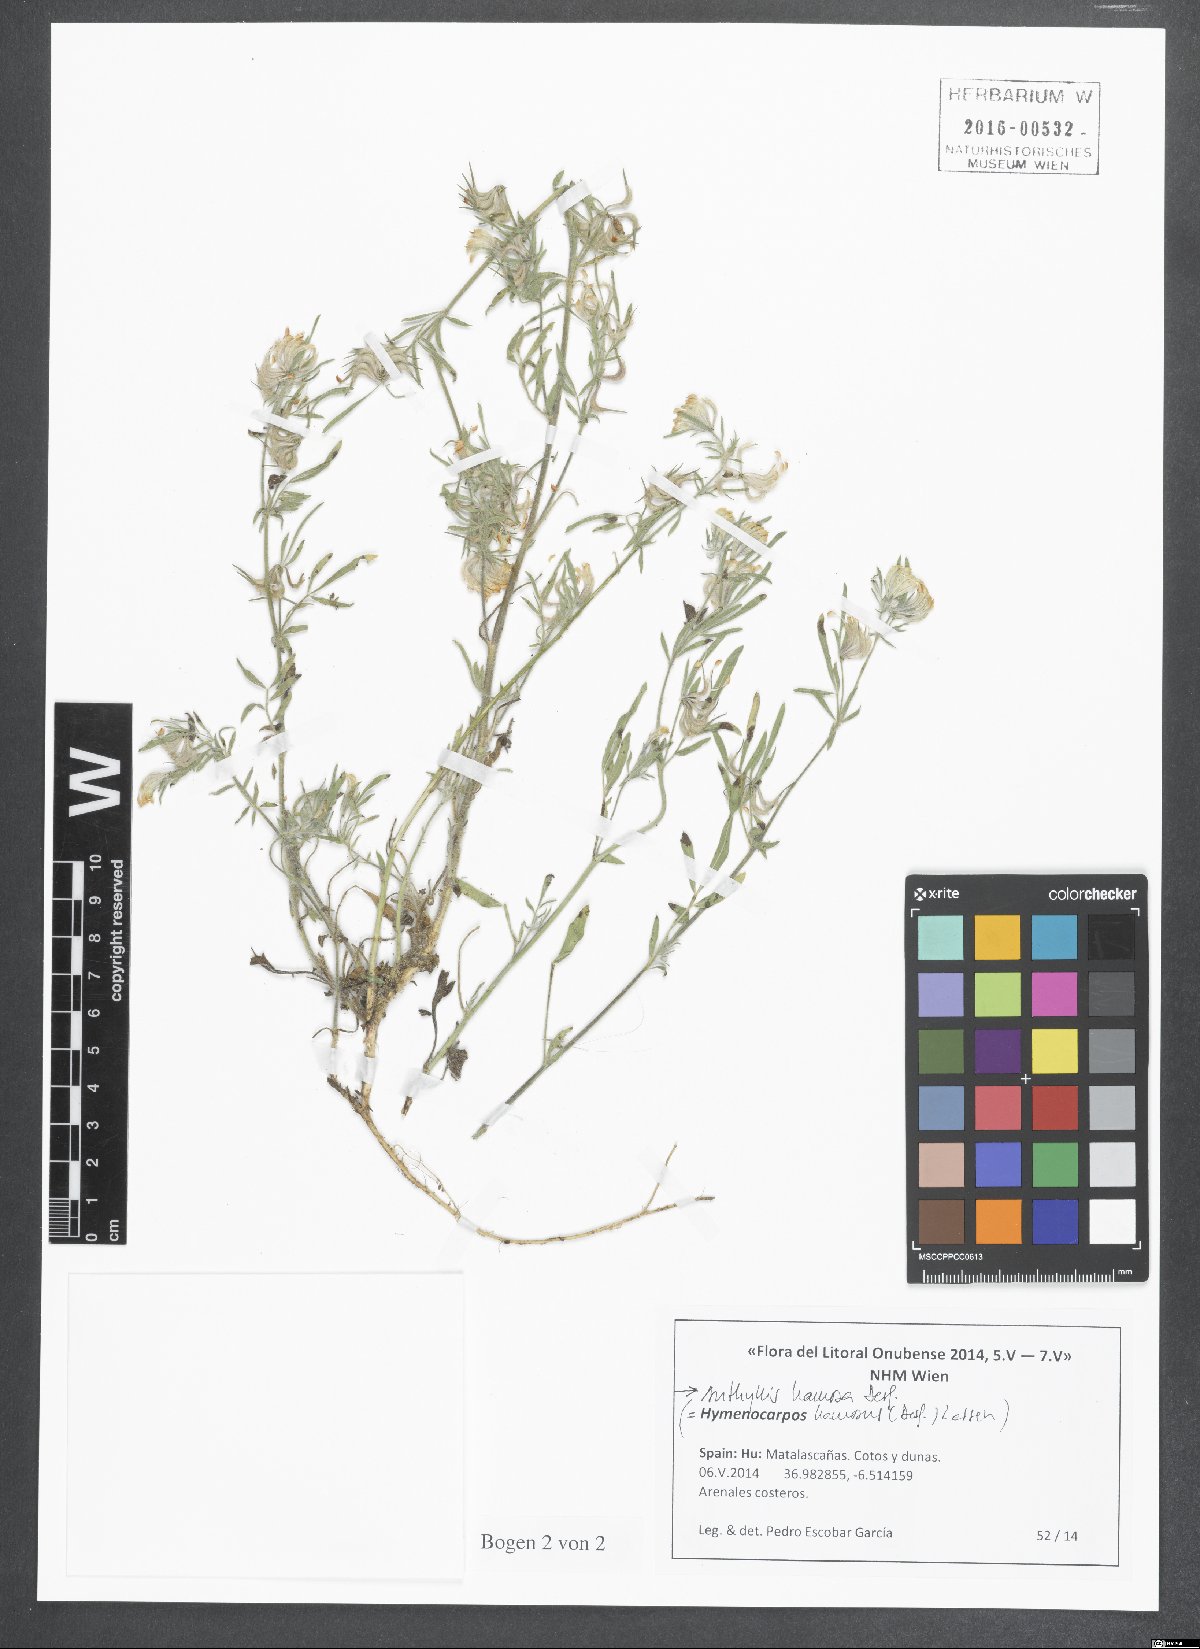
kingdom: Plantae
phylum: Tracheophyta
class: Magnoliopsida
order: Fabales
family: Fabaceae
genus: Anthyllis
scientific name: Anthyllis hamosa
